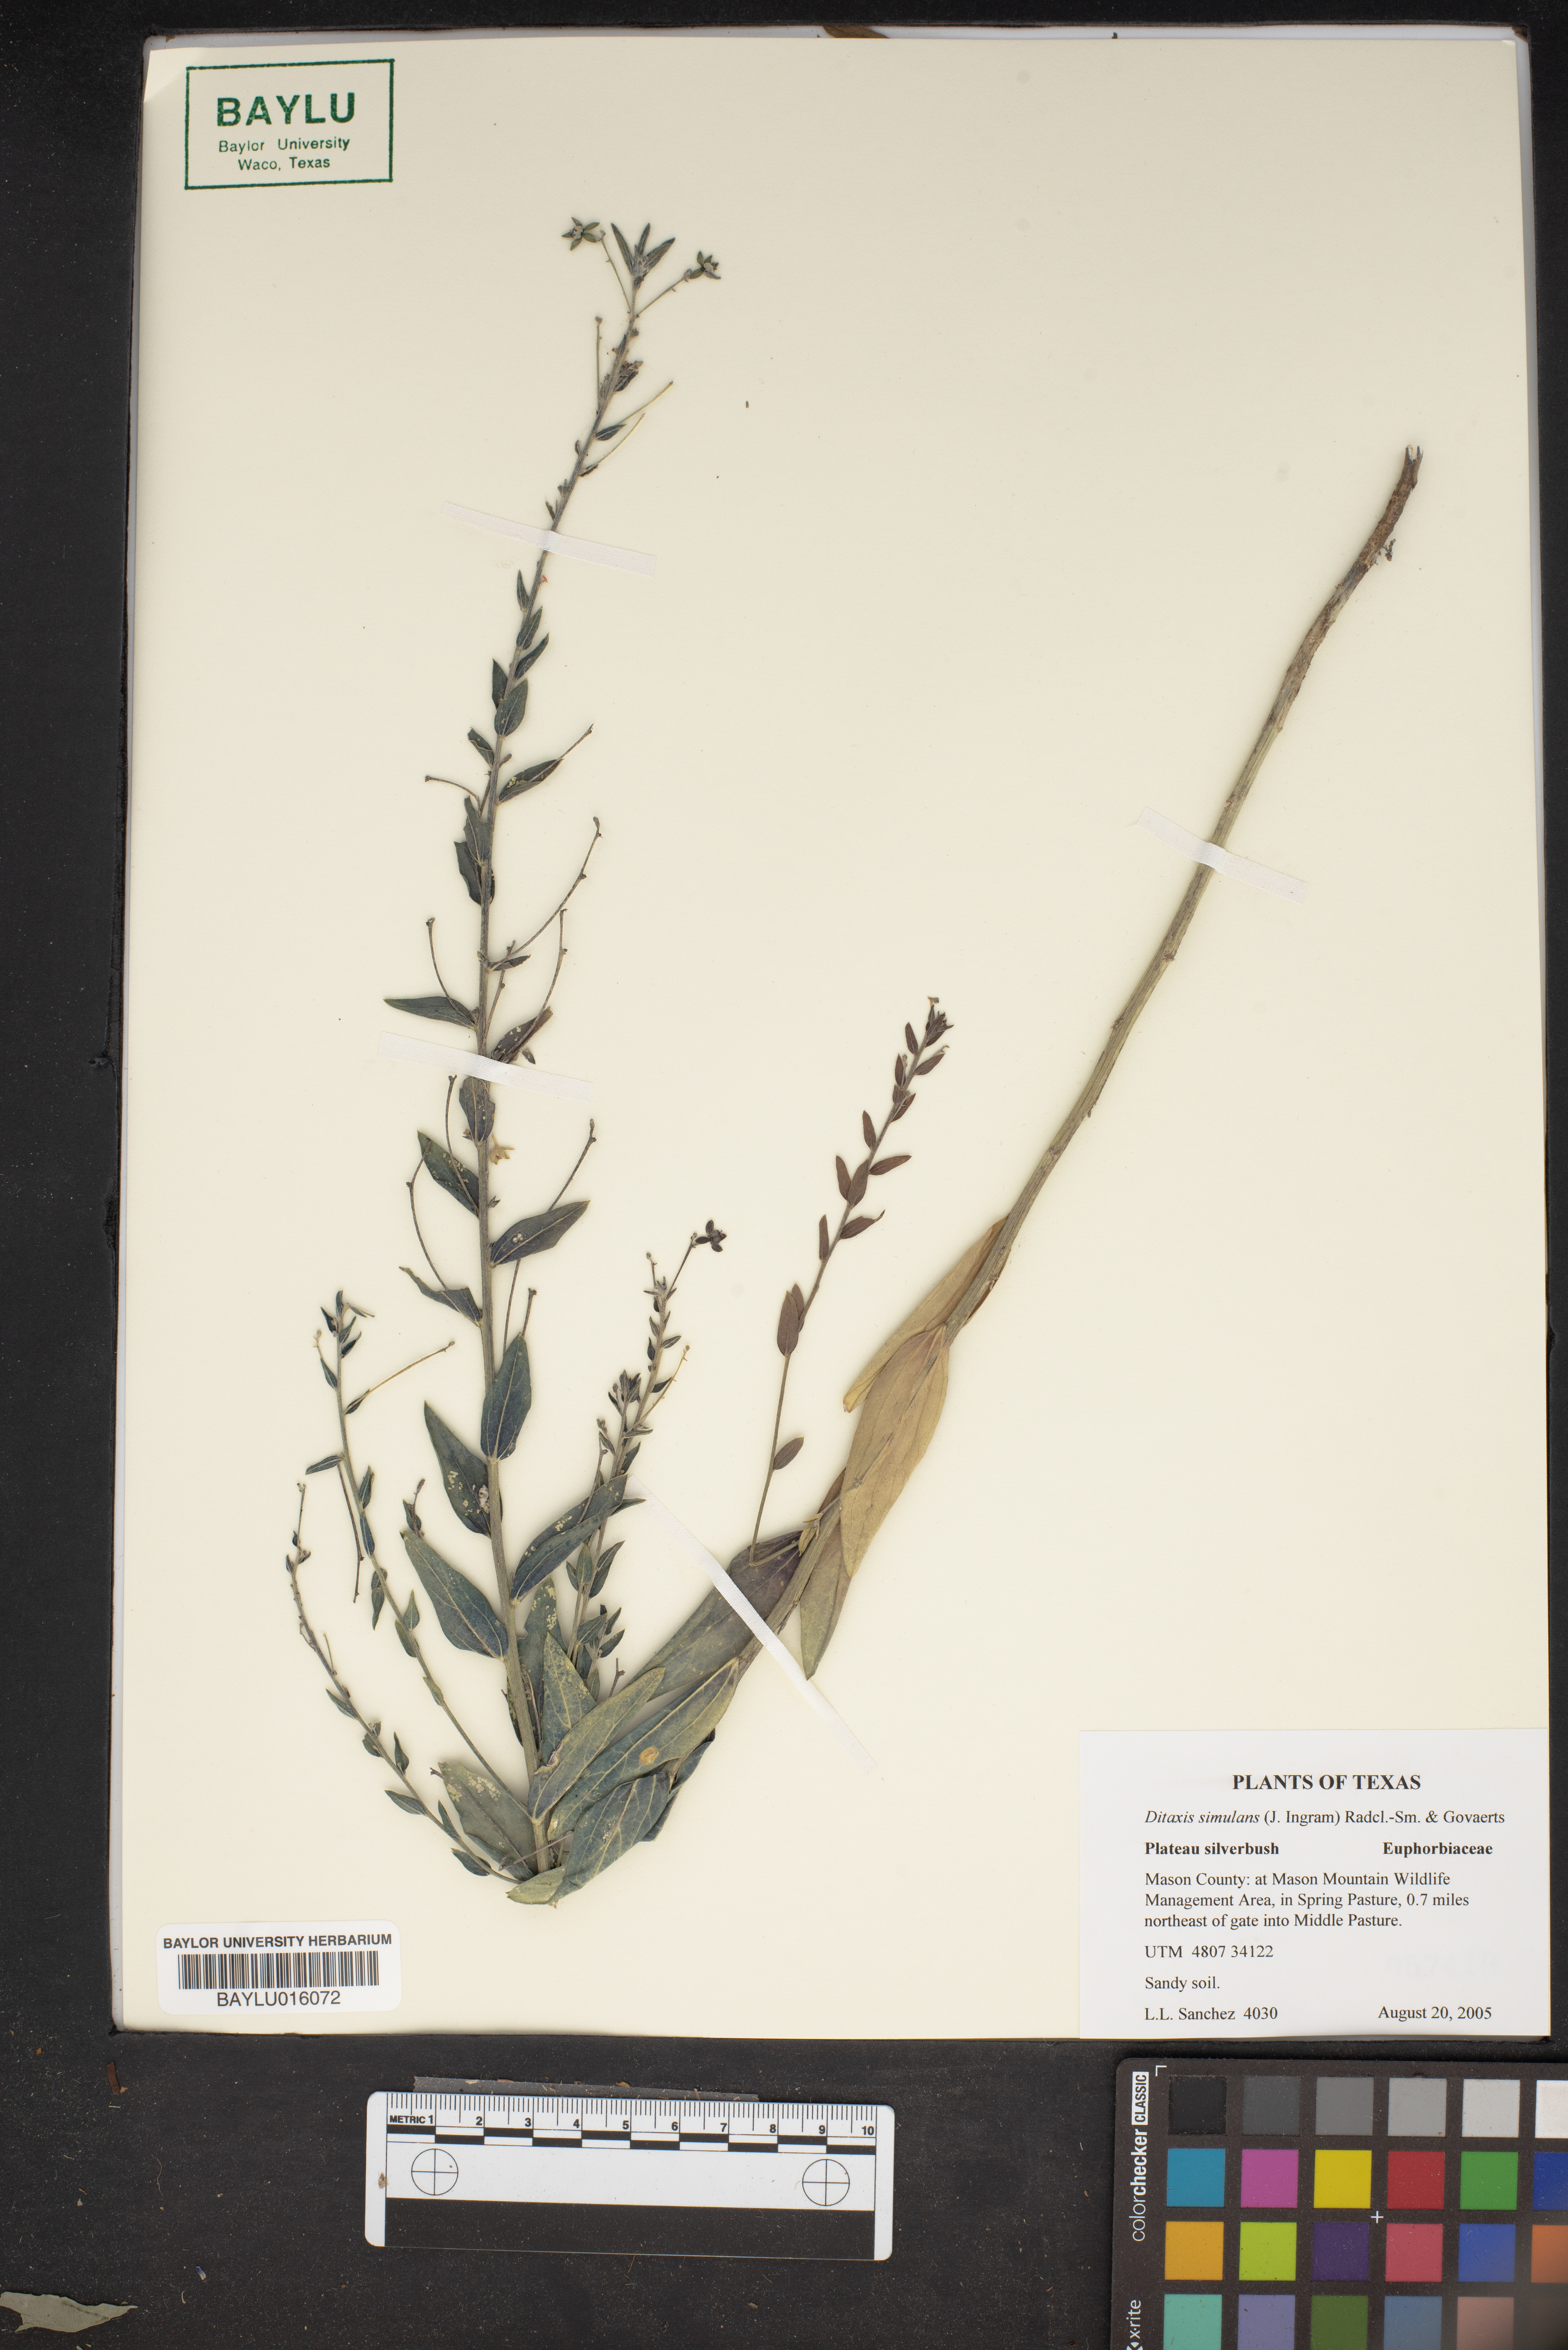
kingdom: Plantae
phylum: Tracheophyta
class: Magnoliopsida
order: Malpighiales
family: Euphorbiaceae
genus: Ditaxis
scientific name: Ditaxis simulans
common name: Plateau silverbush
